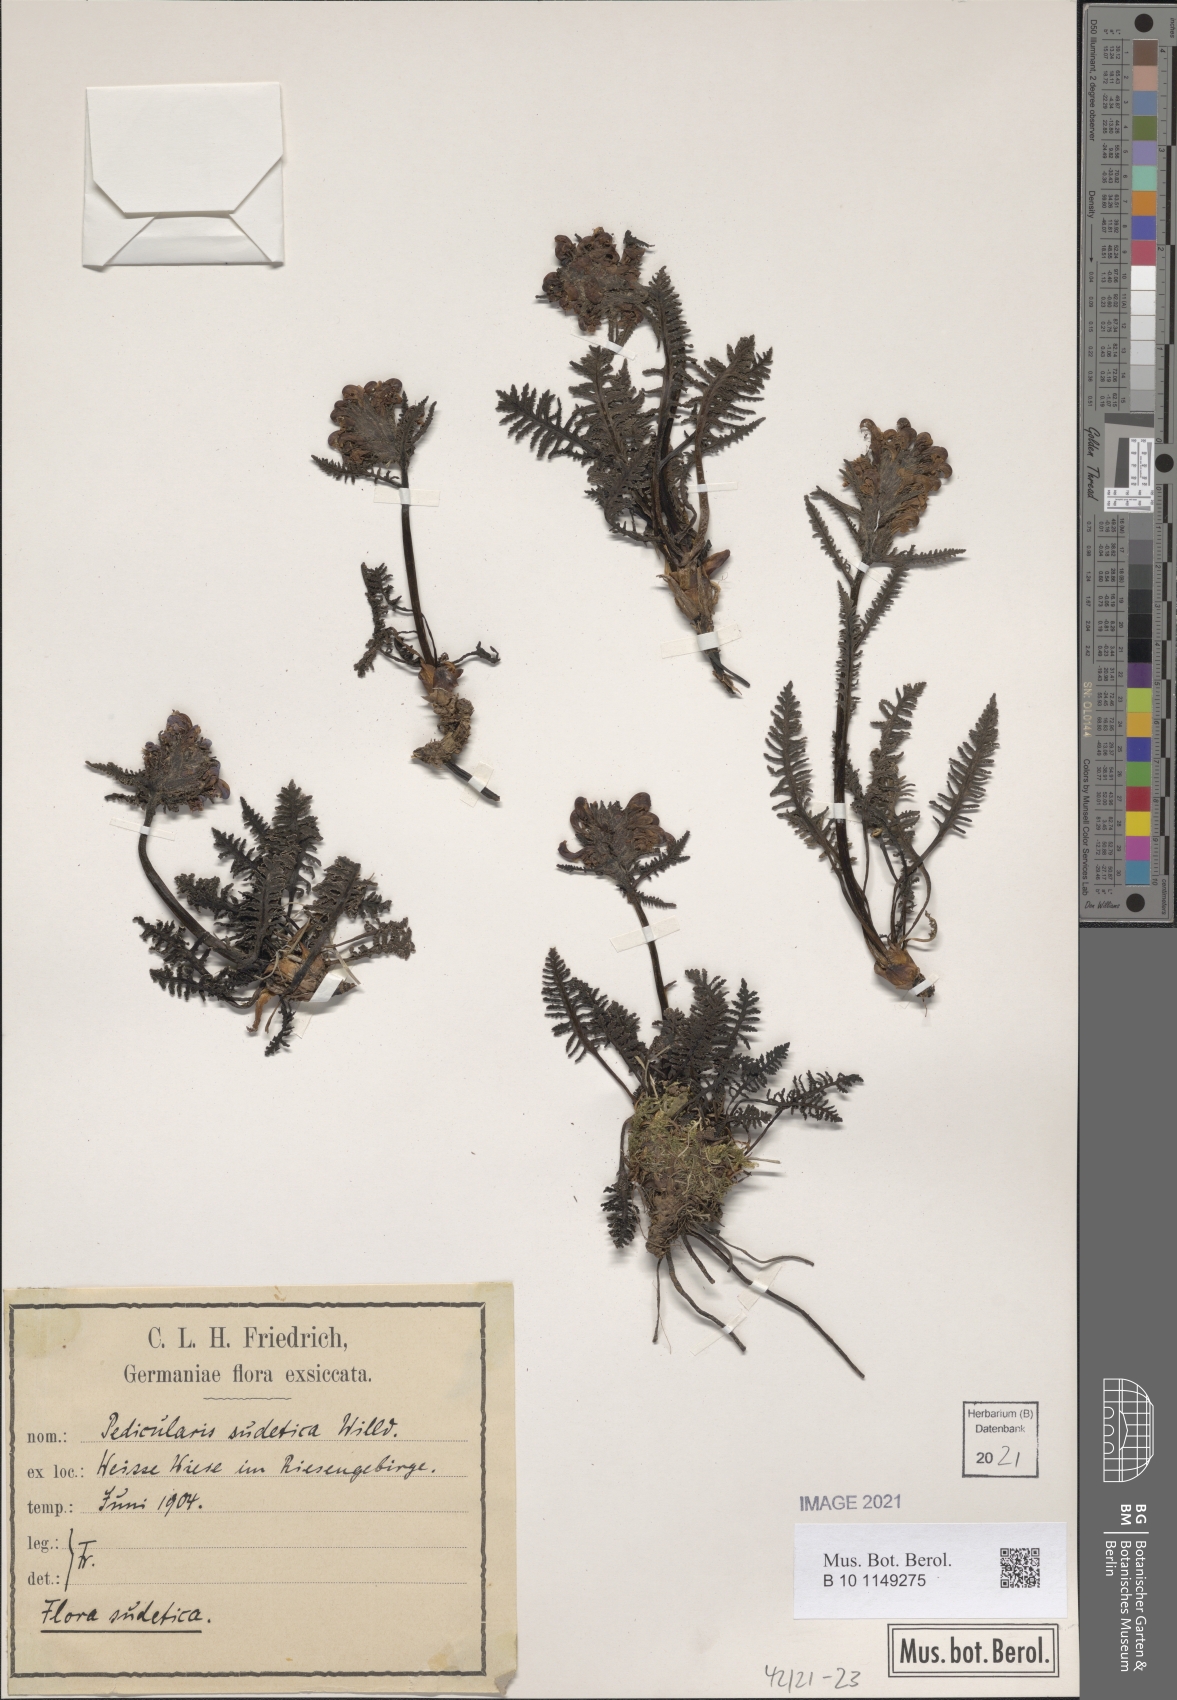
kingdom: Plantae
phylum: Tracheophyta
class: Magnoliopsida
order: Lamiales
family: Orobanchaceae
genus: Pedicularis
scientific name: Pedicularis sudetica
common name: Sudeten lousewort
